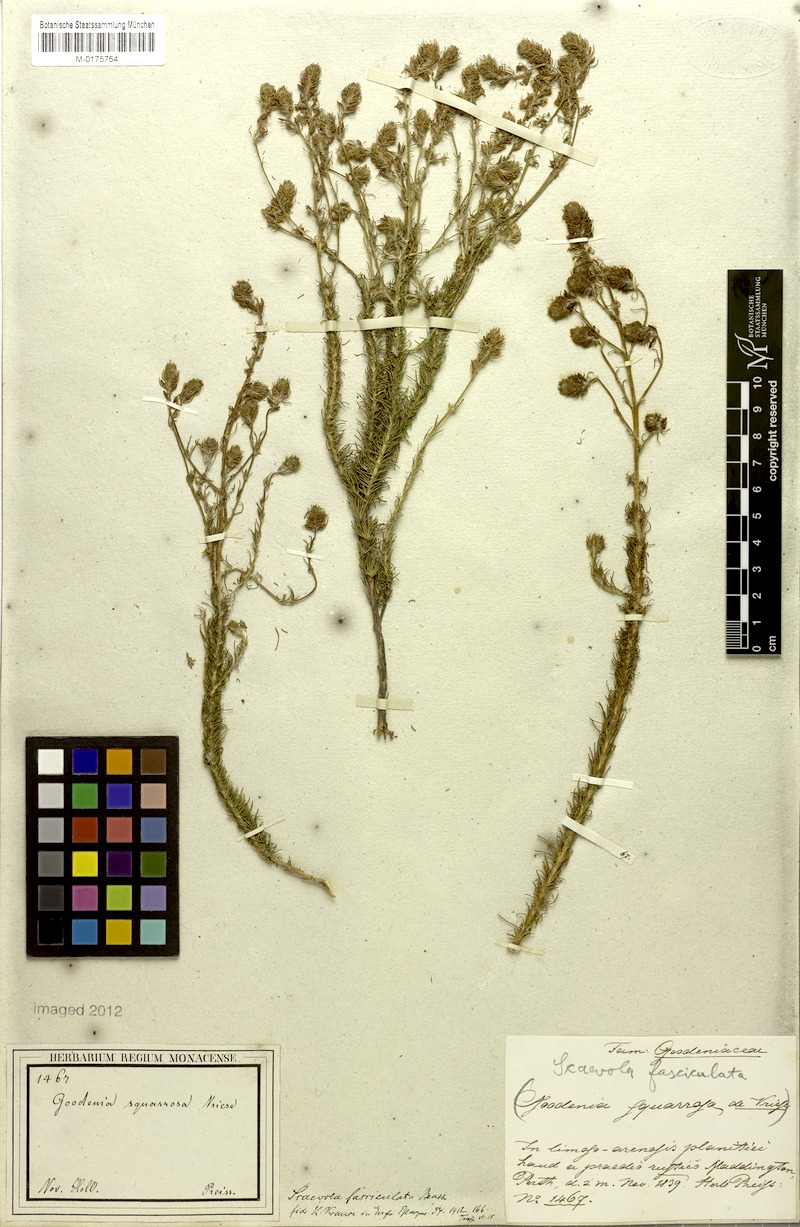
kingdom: Plantae
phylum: Tracheophyta
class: Magnoliopsida
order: Asterales
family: Goodeniaceae
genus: Goodenia
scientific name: Goodenia fasciculata
